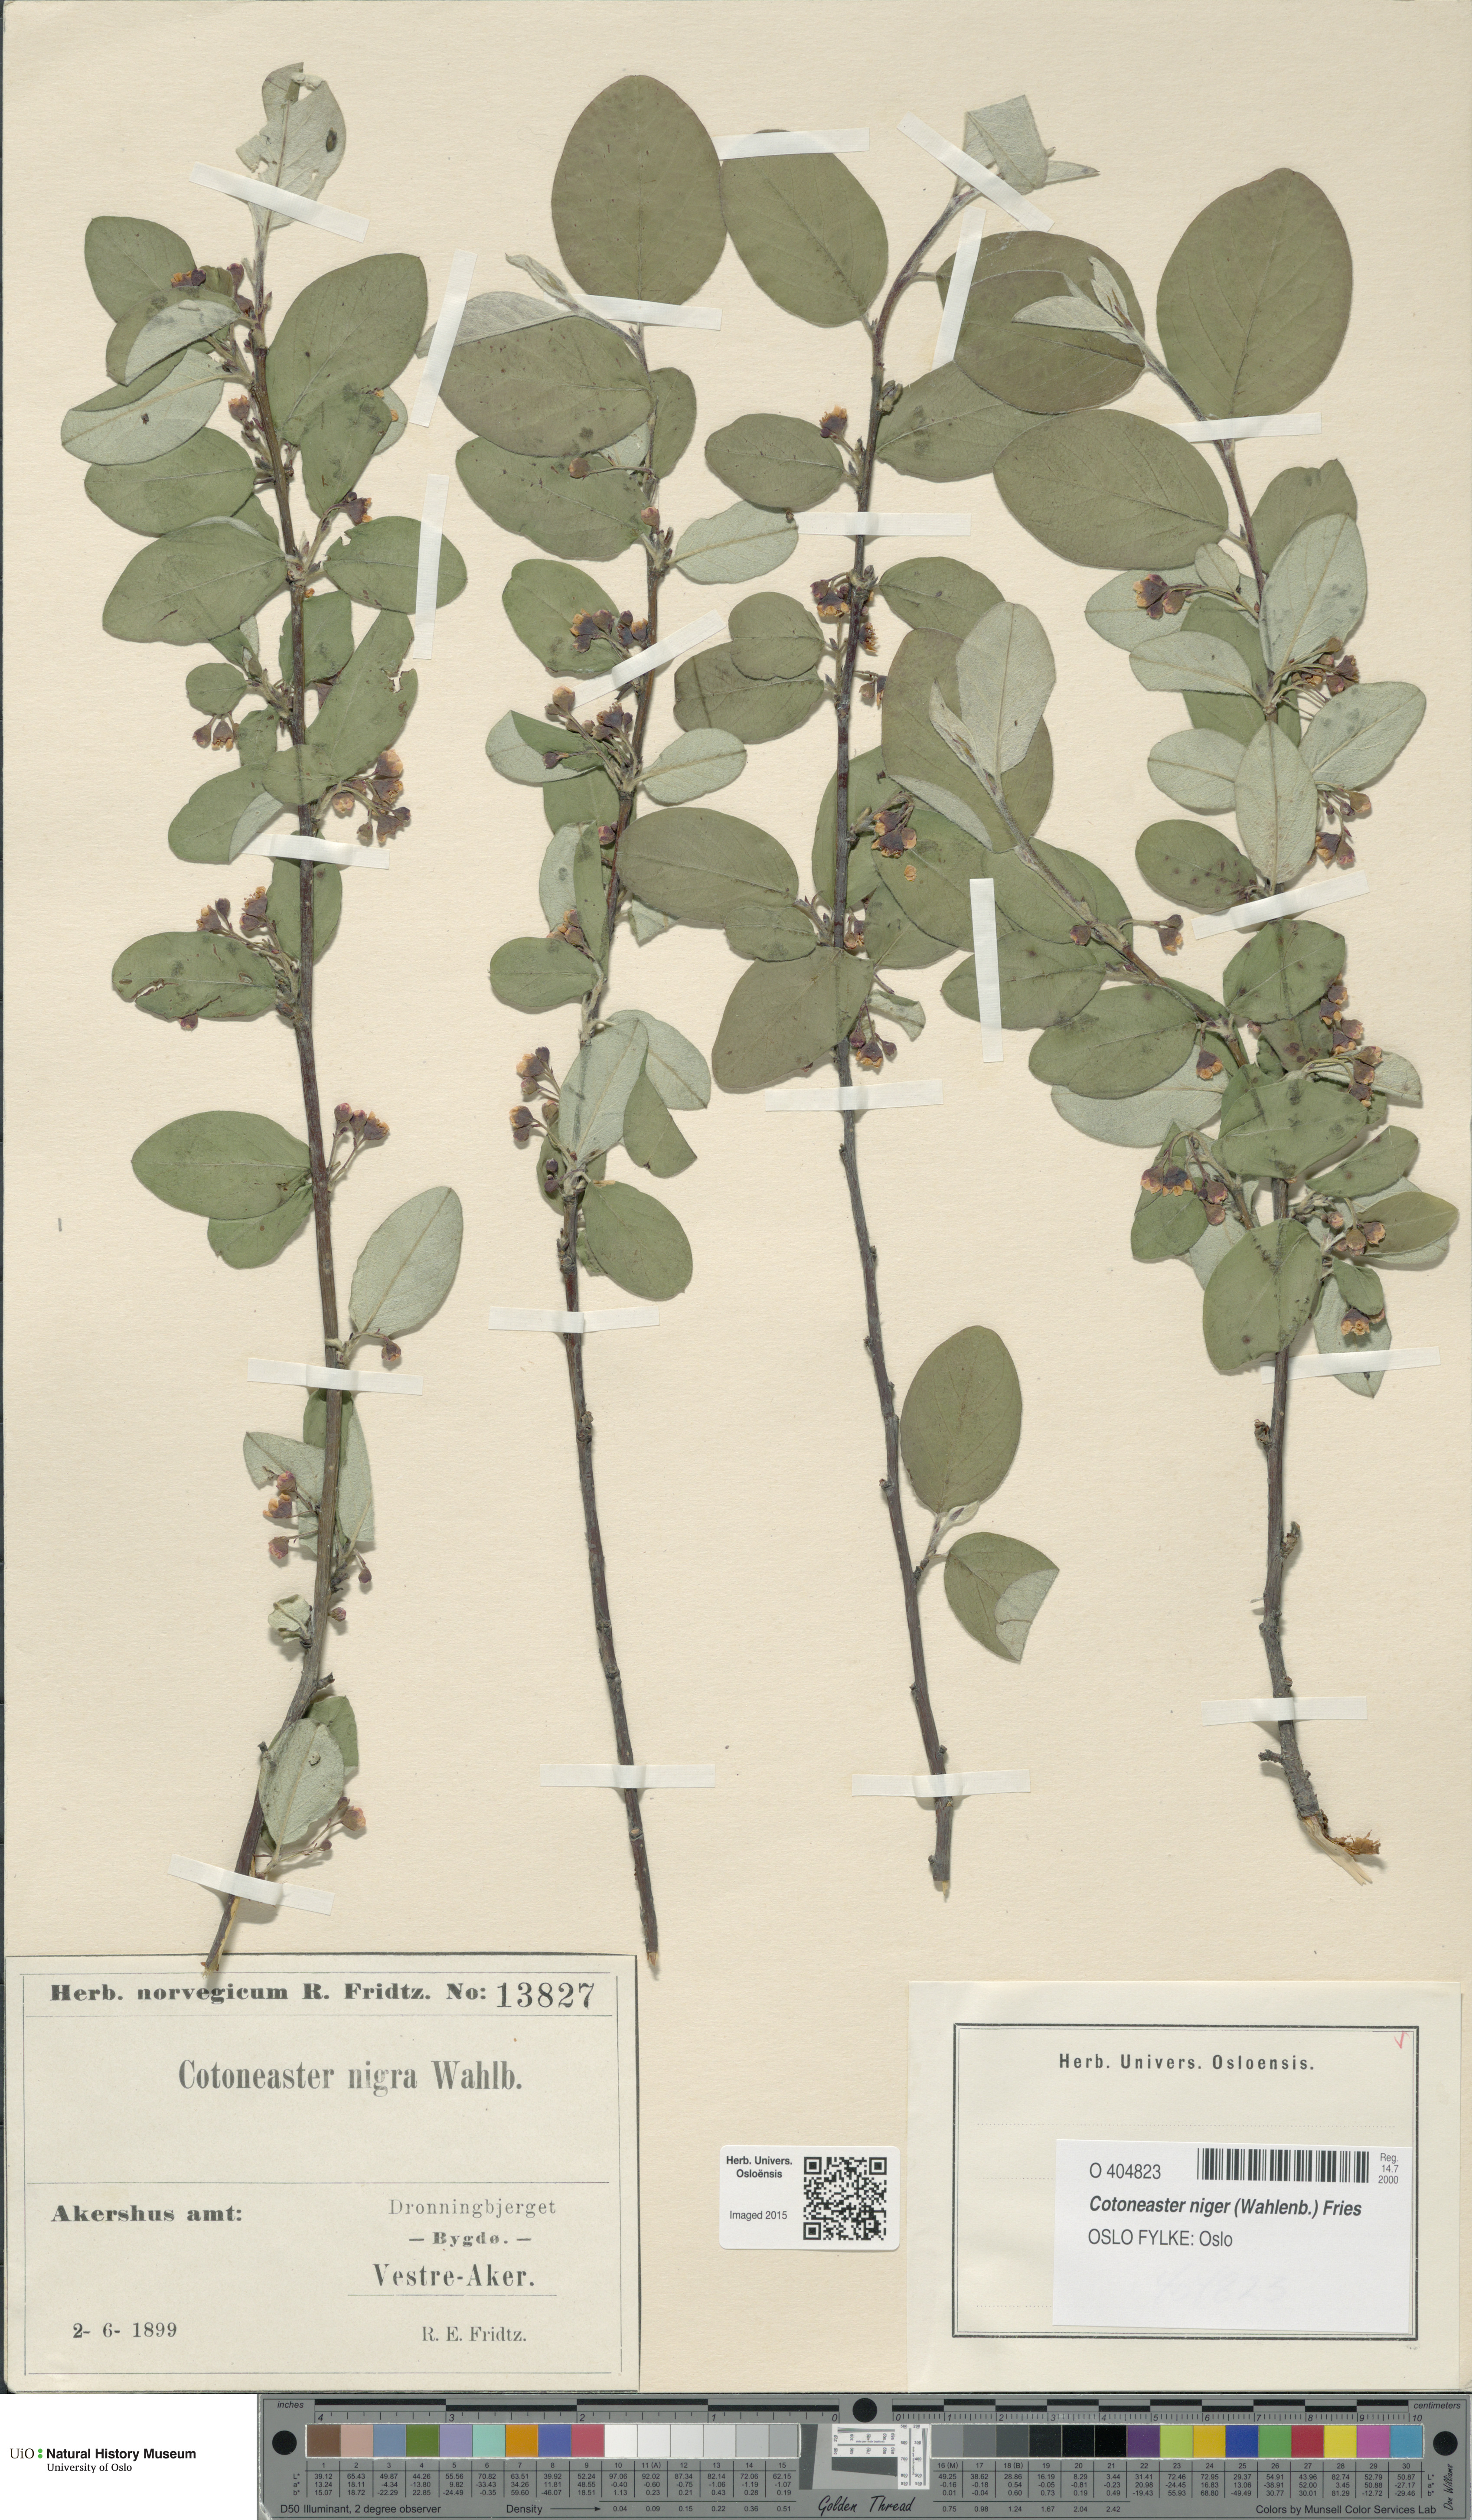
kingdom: Plantae
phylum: Tracheophyta
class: Magnoliopsida
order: Rosales
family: Rosaceae
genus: Cotoneaster
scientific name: Cotoneaster niger
